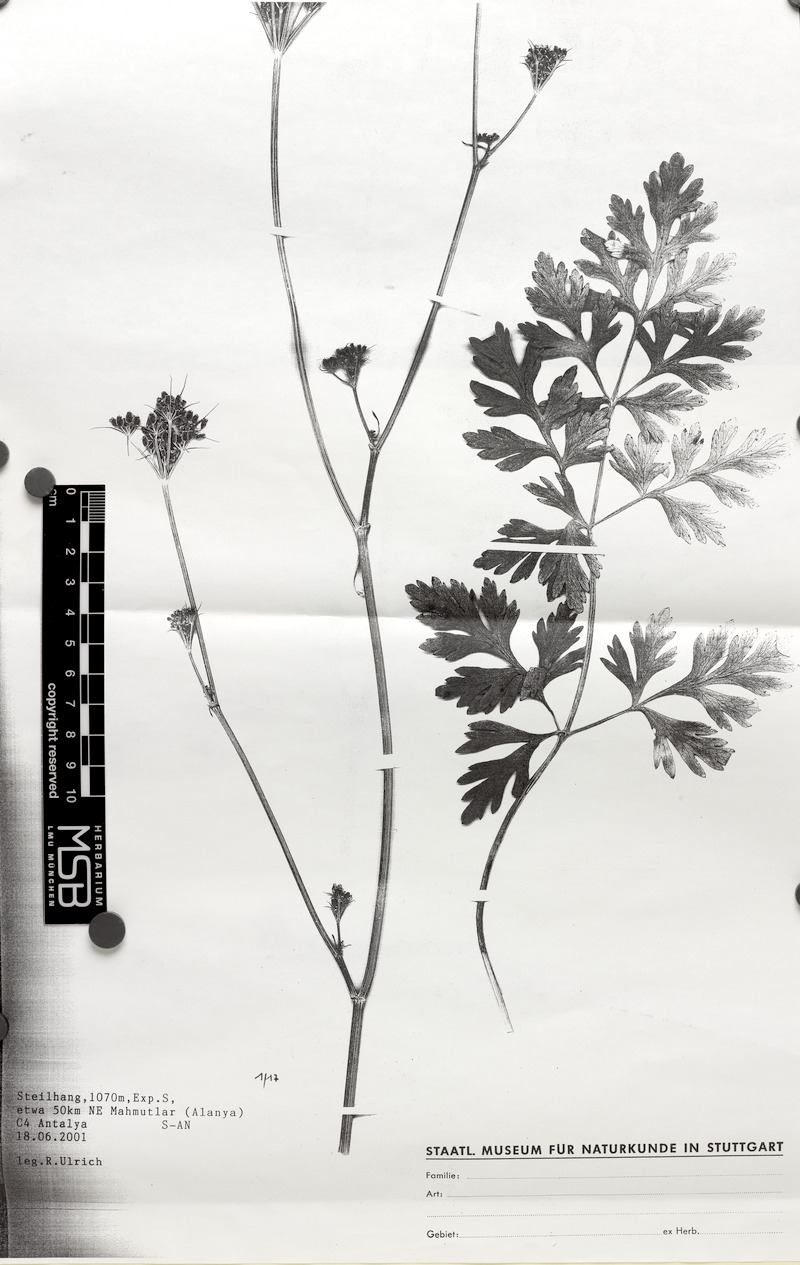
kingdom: Plantae
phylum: Tracheophyta
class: Magnoliopsida
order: Apiales
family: Apiaceae
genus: Dichoropetalum
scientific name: Dichoropetalum longibracteolatum
